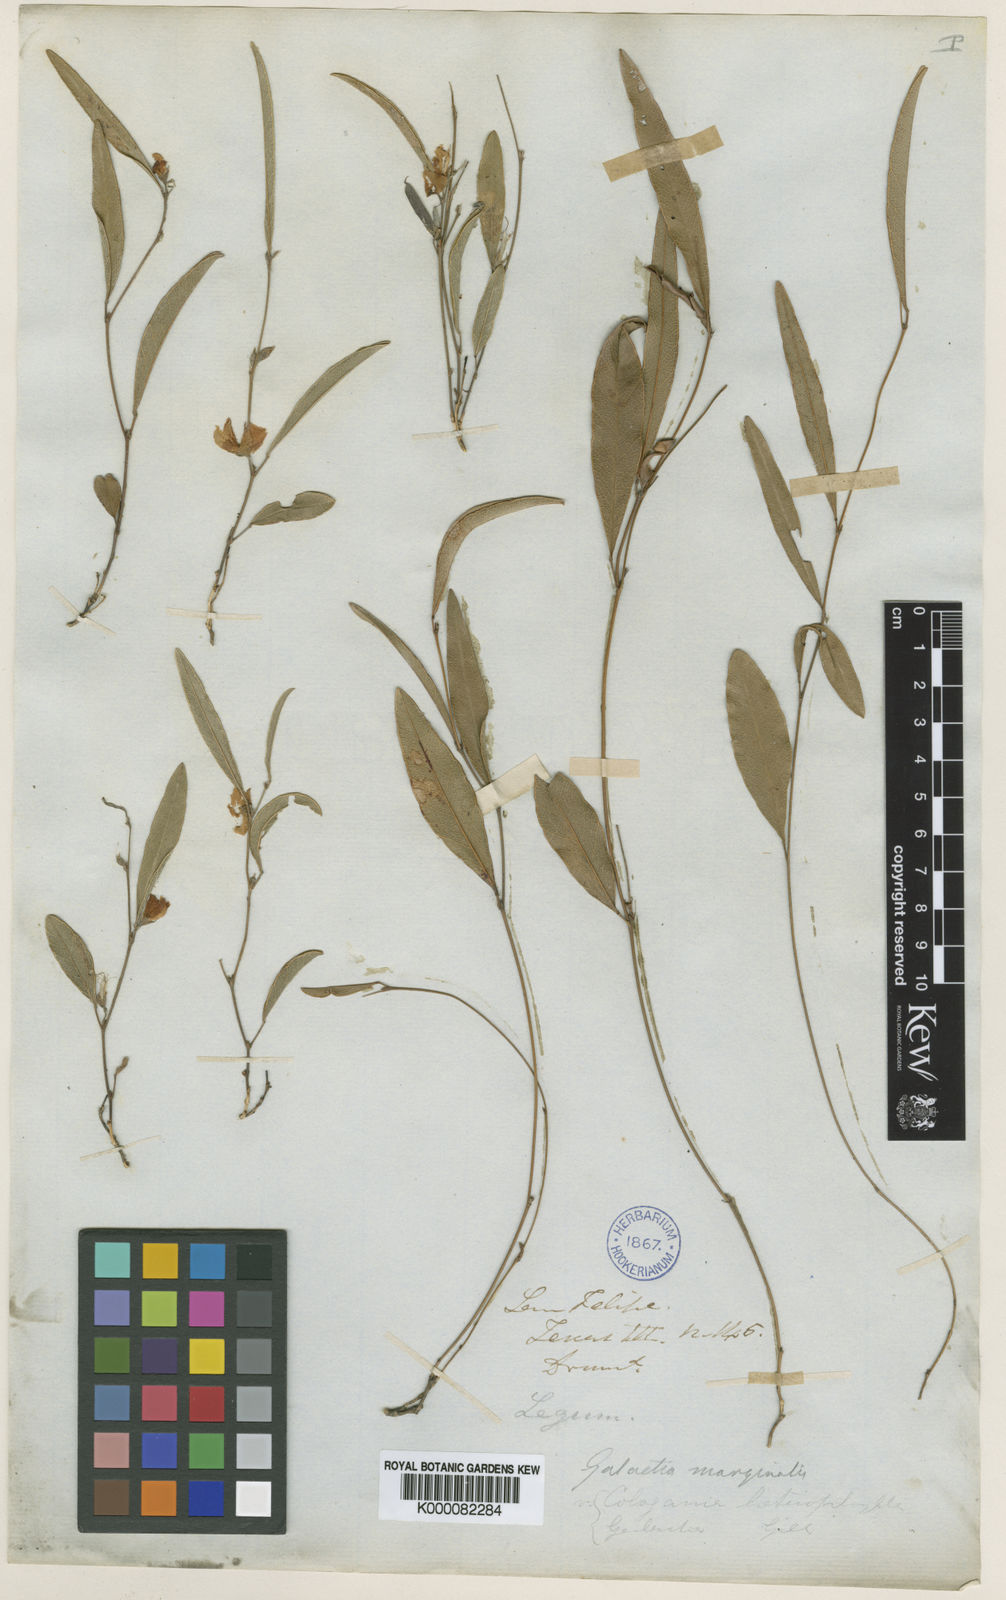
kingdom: Plantae
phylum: Tracheophyta
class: Magnoliopsida
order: Fabales
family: Fabaceae
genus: Nanogalactia
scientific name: Nanogalactia heterophylla
